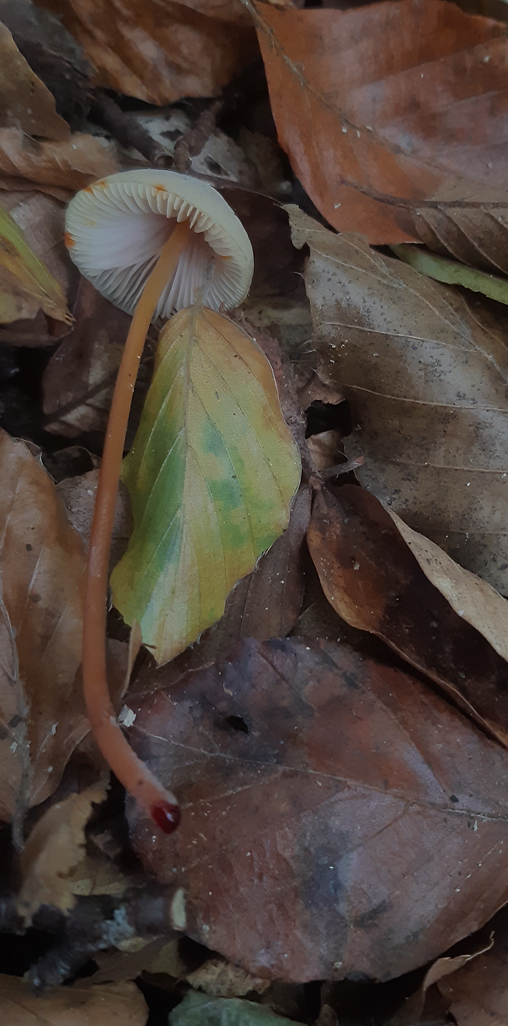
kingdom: Fungi
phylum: Basidiomycota
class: Agaricomycetes
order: Agaricales
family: Mycenaceae
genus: Mycena
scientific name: Mycena crocata
